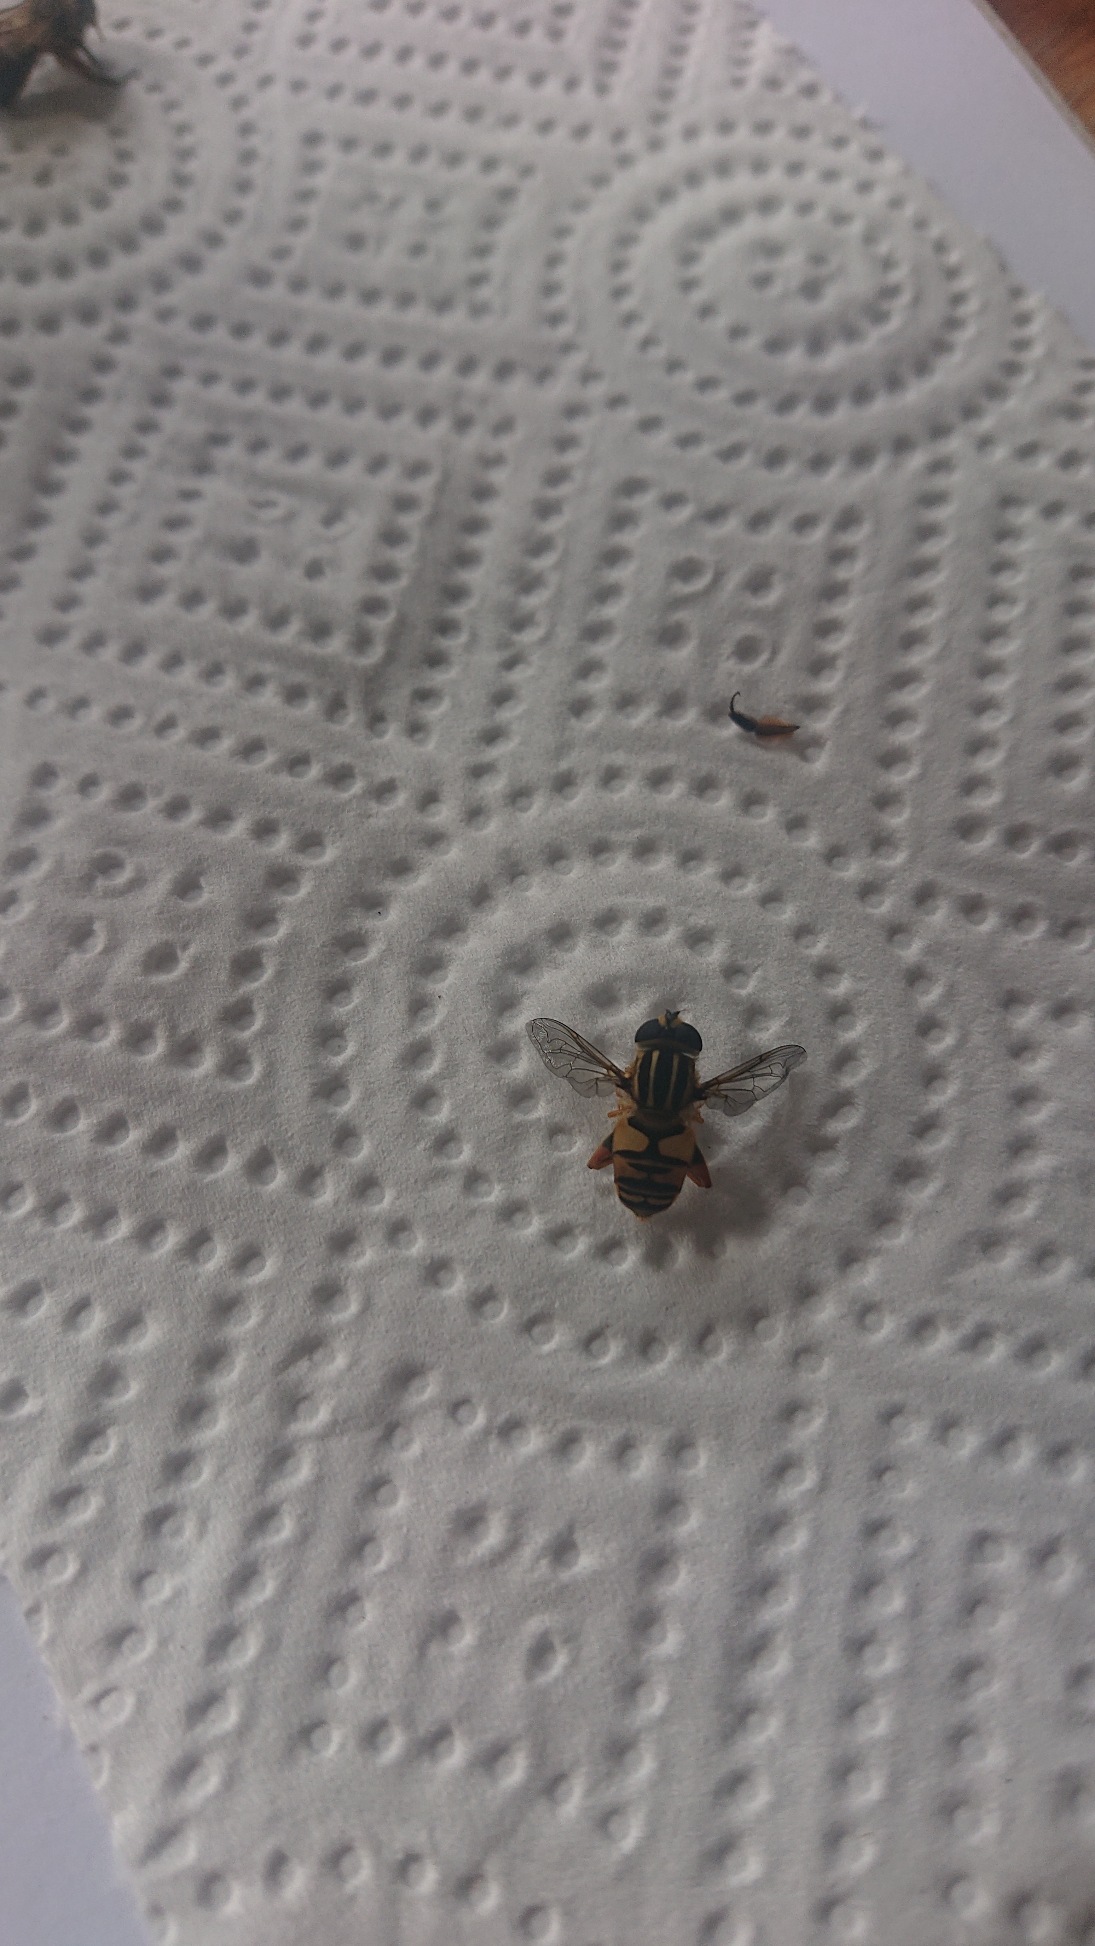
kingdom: Animalia
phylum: Arthropoda
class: Insecta
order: Diptera
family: Syrphidae
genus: Helophilus
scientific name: Helophilus pendulus
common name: Almindelig sumpsvirreflue
